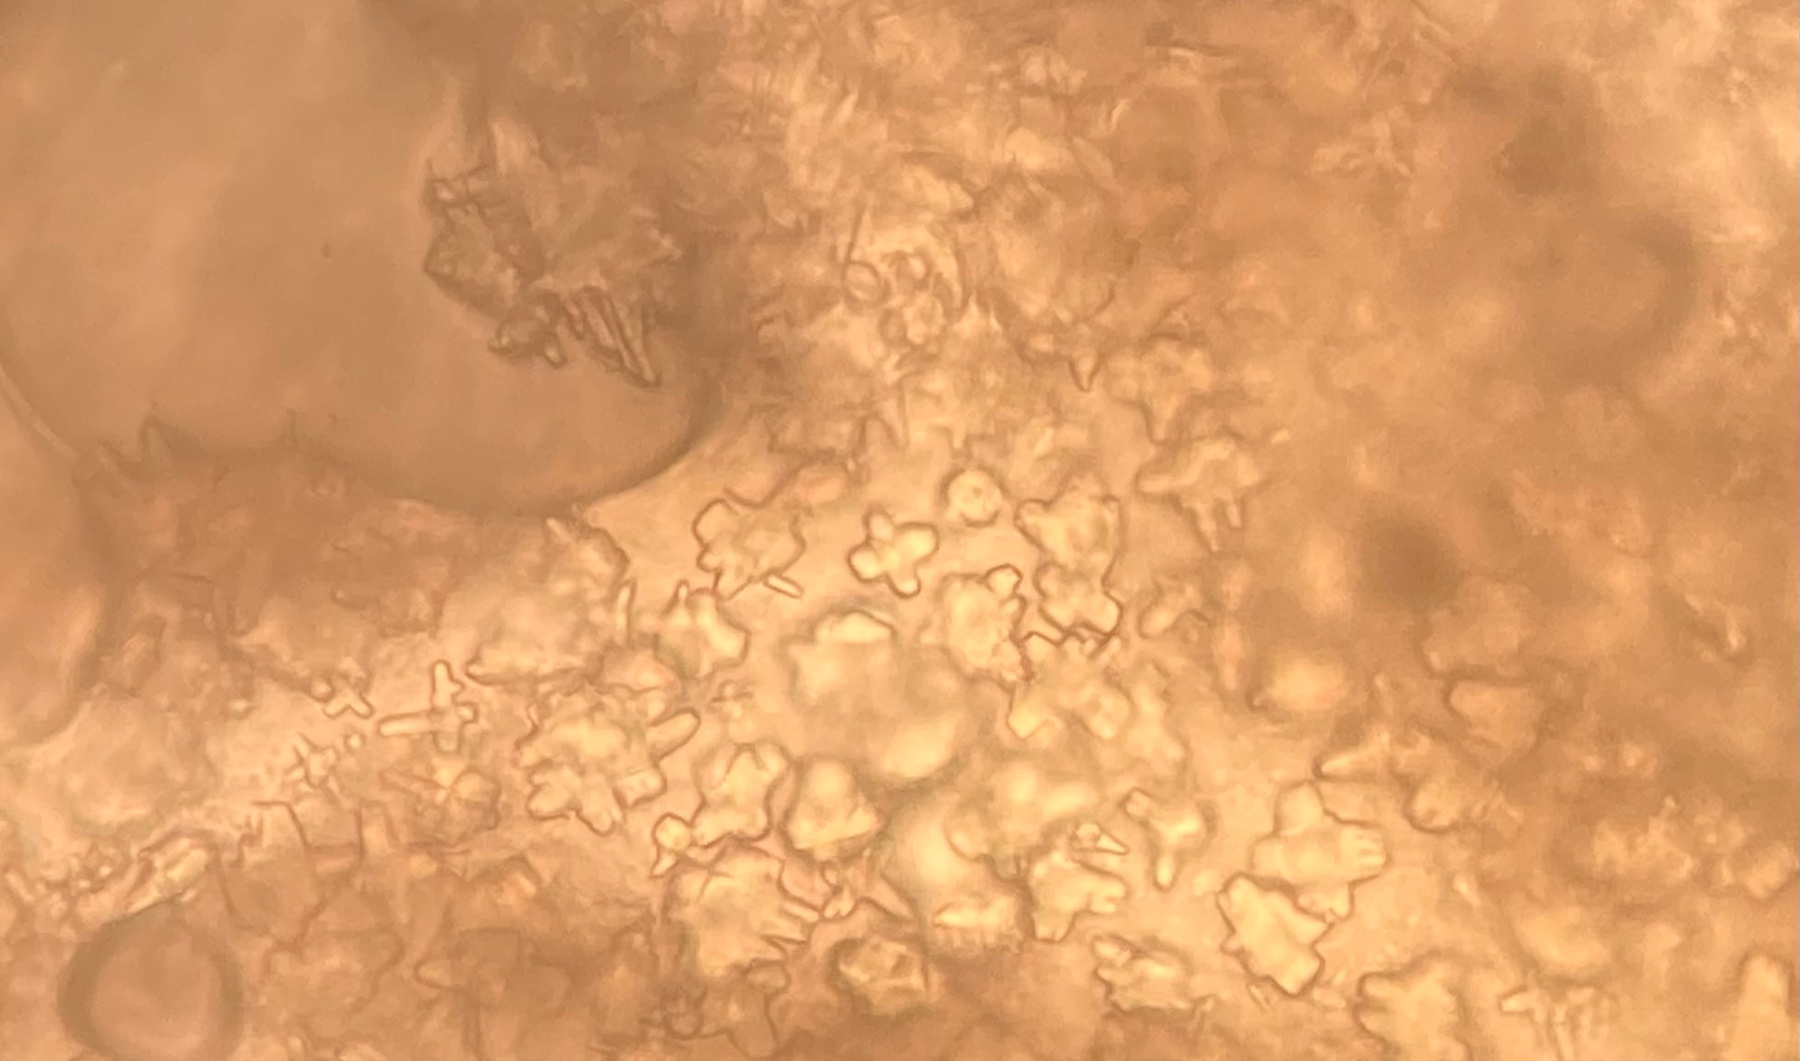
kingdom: Protozoa
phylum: Mycetozoa
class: Myxomycetes
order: Physarales
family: Physaraceae
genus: Didymium
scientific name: Didymium
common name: urteskum
